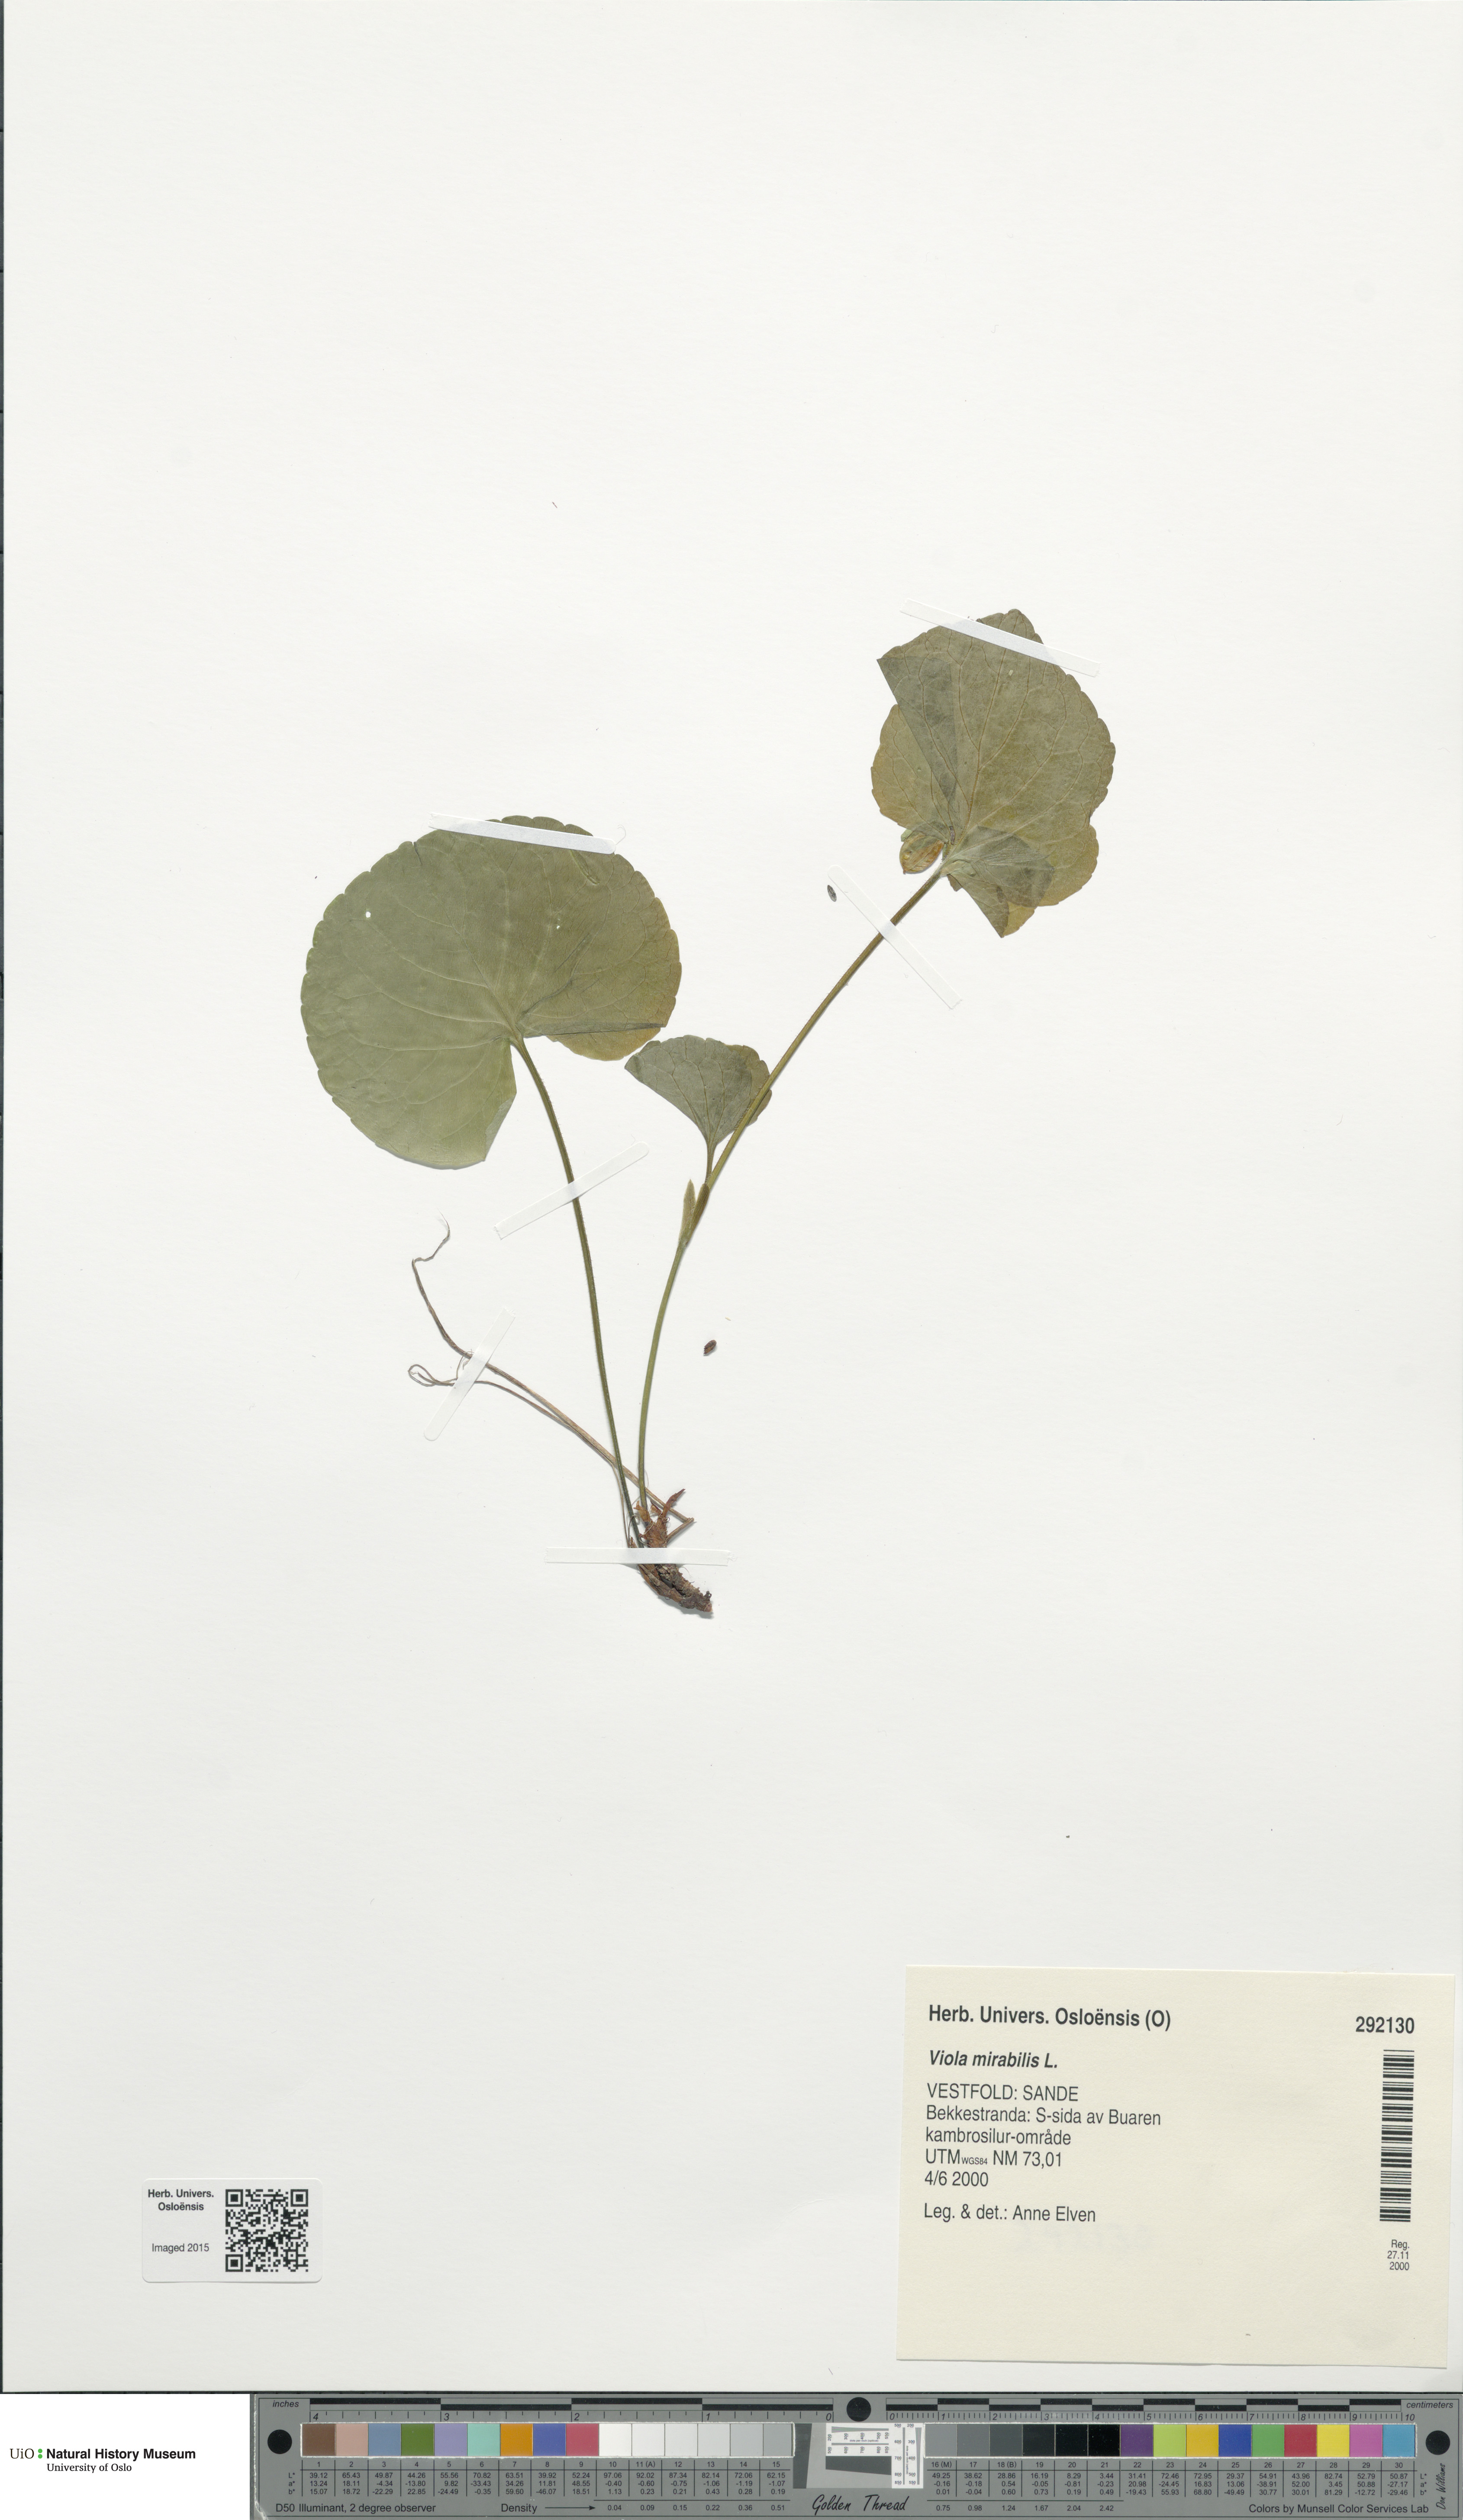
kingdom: Plantae
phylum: Tracheophyta
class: Magnoliopsida
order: Malpighiales
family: Violaceae
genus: Viola
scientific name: Viola mirabilis
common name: Wonder violet
